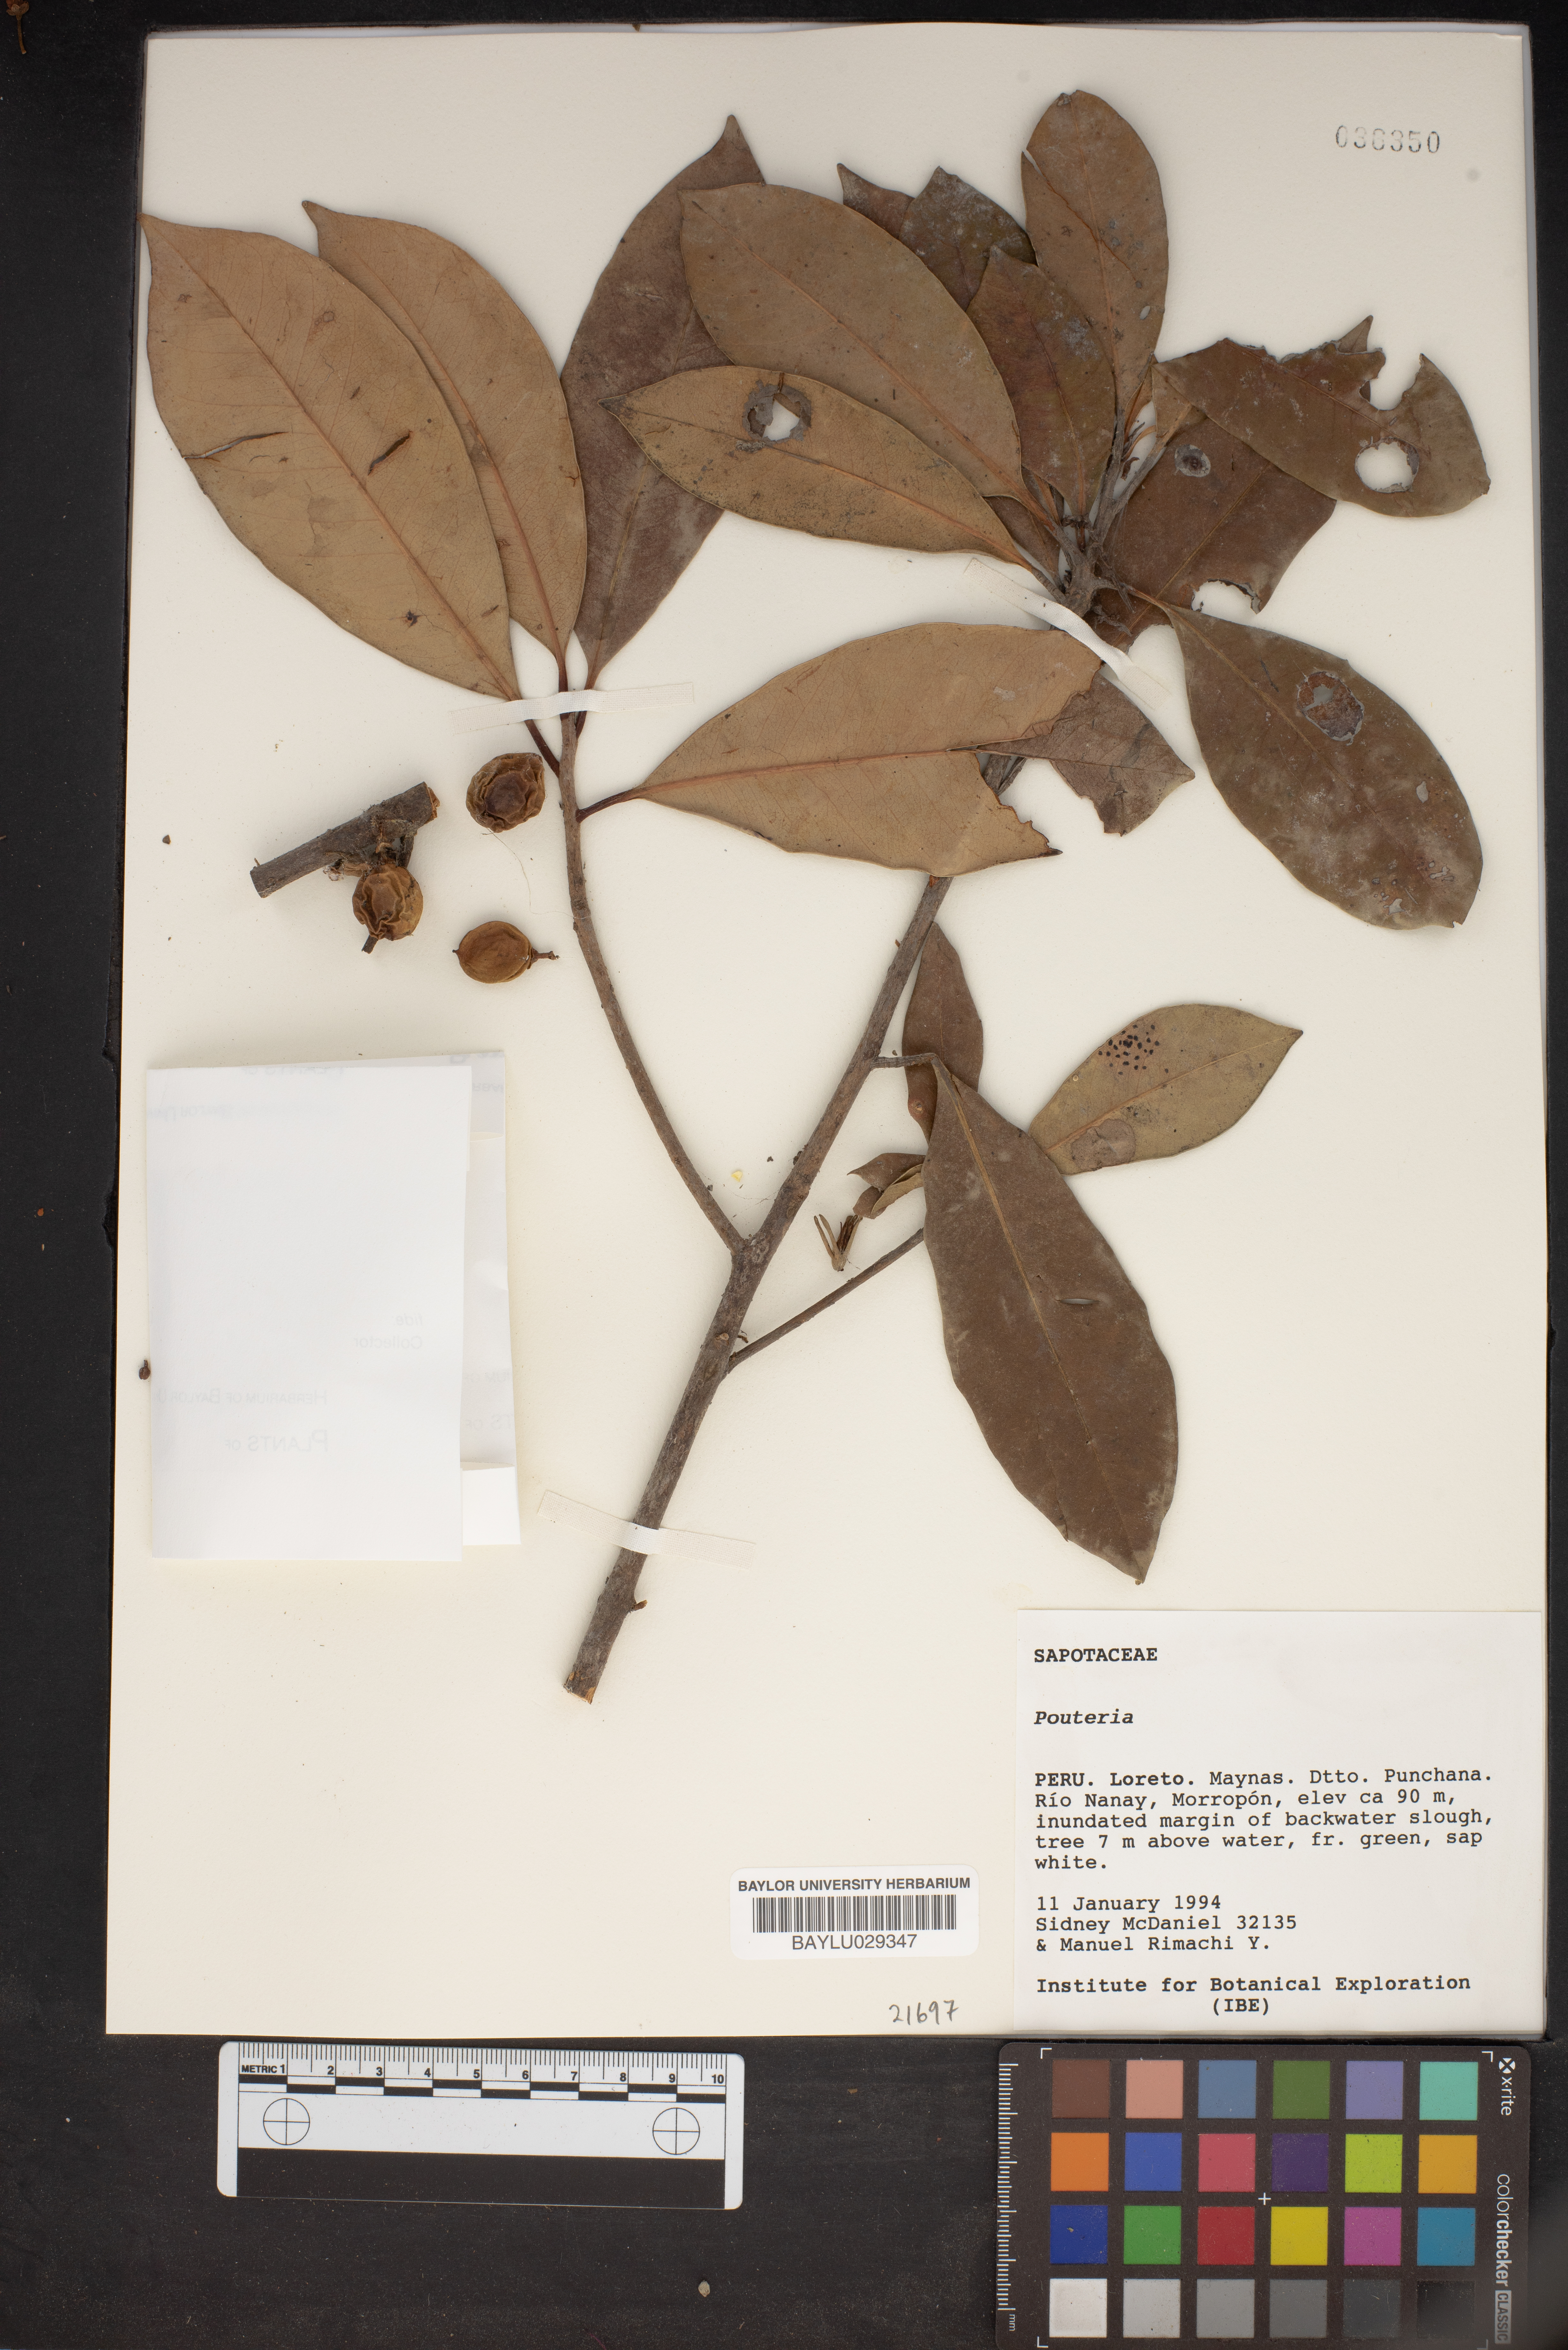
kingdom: Plantae
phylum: Tracheophyta
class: Magnoliopsida
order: Ericales
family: Sapotaceae
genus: Pouteria
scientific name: Pouteria
